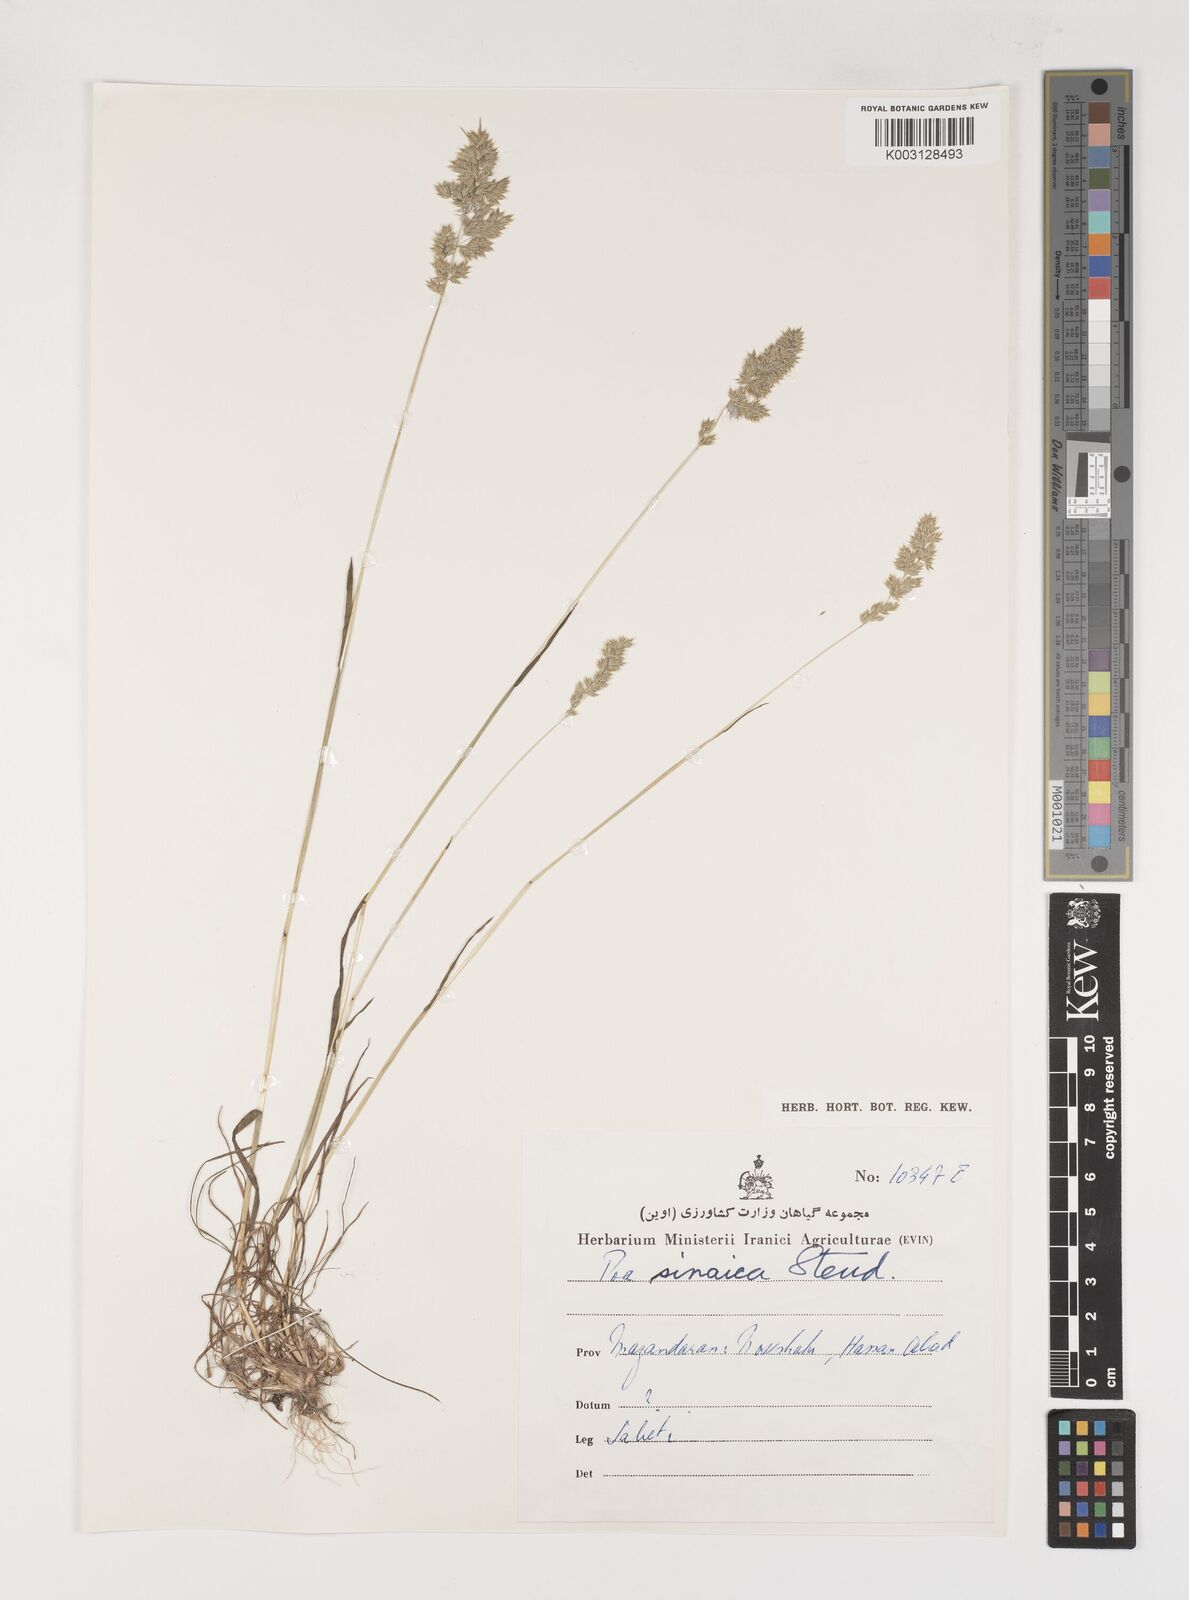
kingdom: Plantae
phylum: Tracheophyta
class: Liliopsida
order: Poales
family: Poaceae
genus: Poa
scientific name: Poa sinaica
